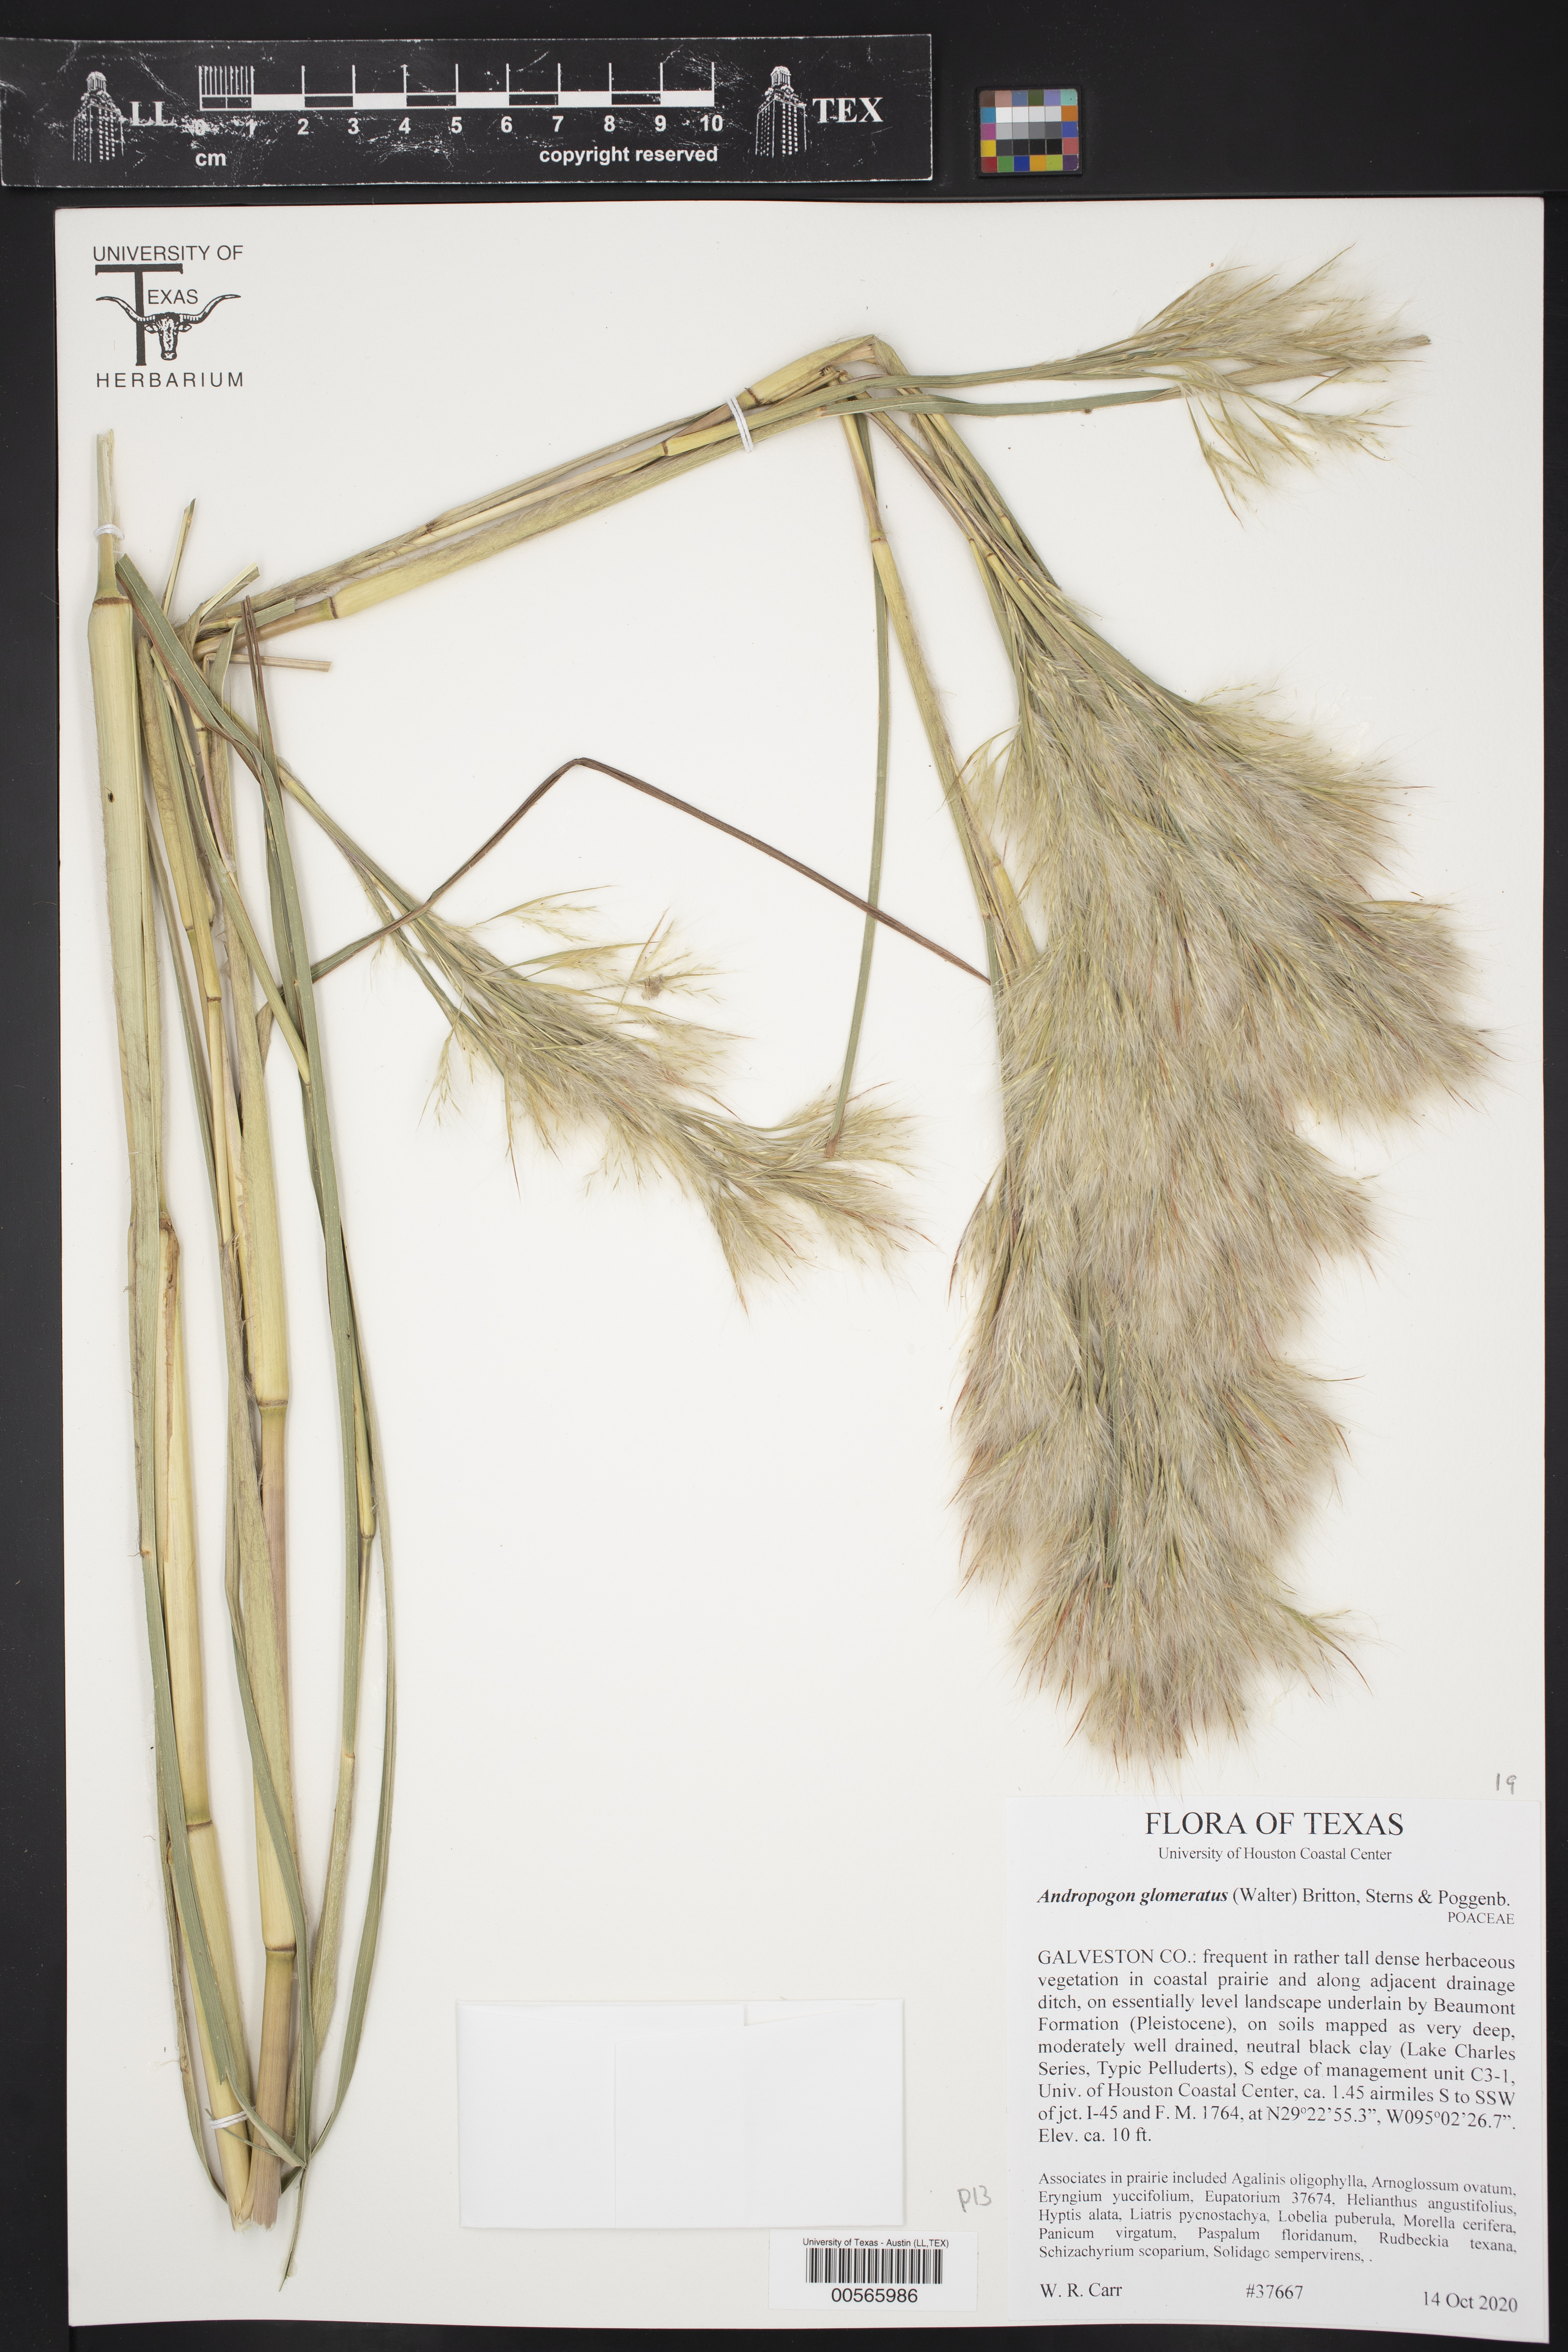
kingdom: Plantae
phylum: Tracheophyta
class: Liliopsida
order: Poales
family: Poaceae
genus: Andropogon
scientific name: Andropogon glomeratus
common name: Bushy beard grass
